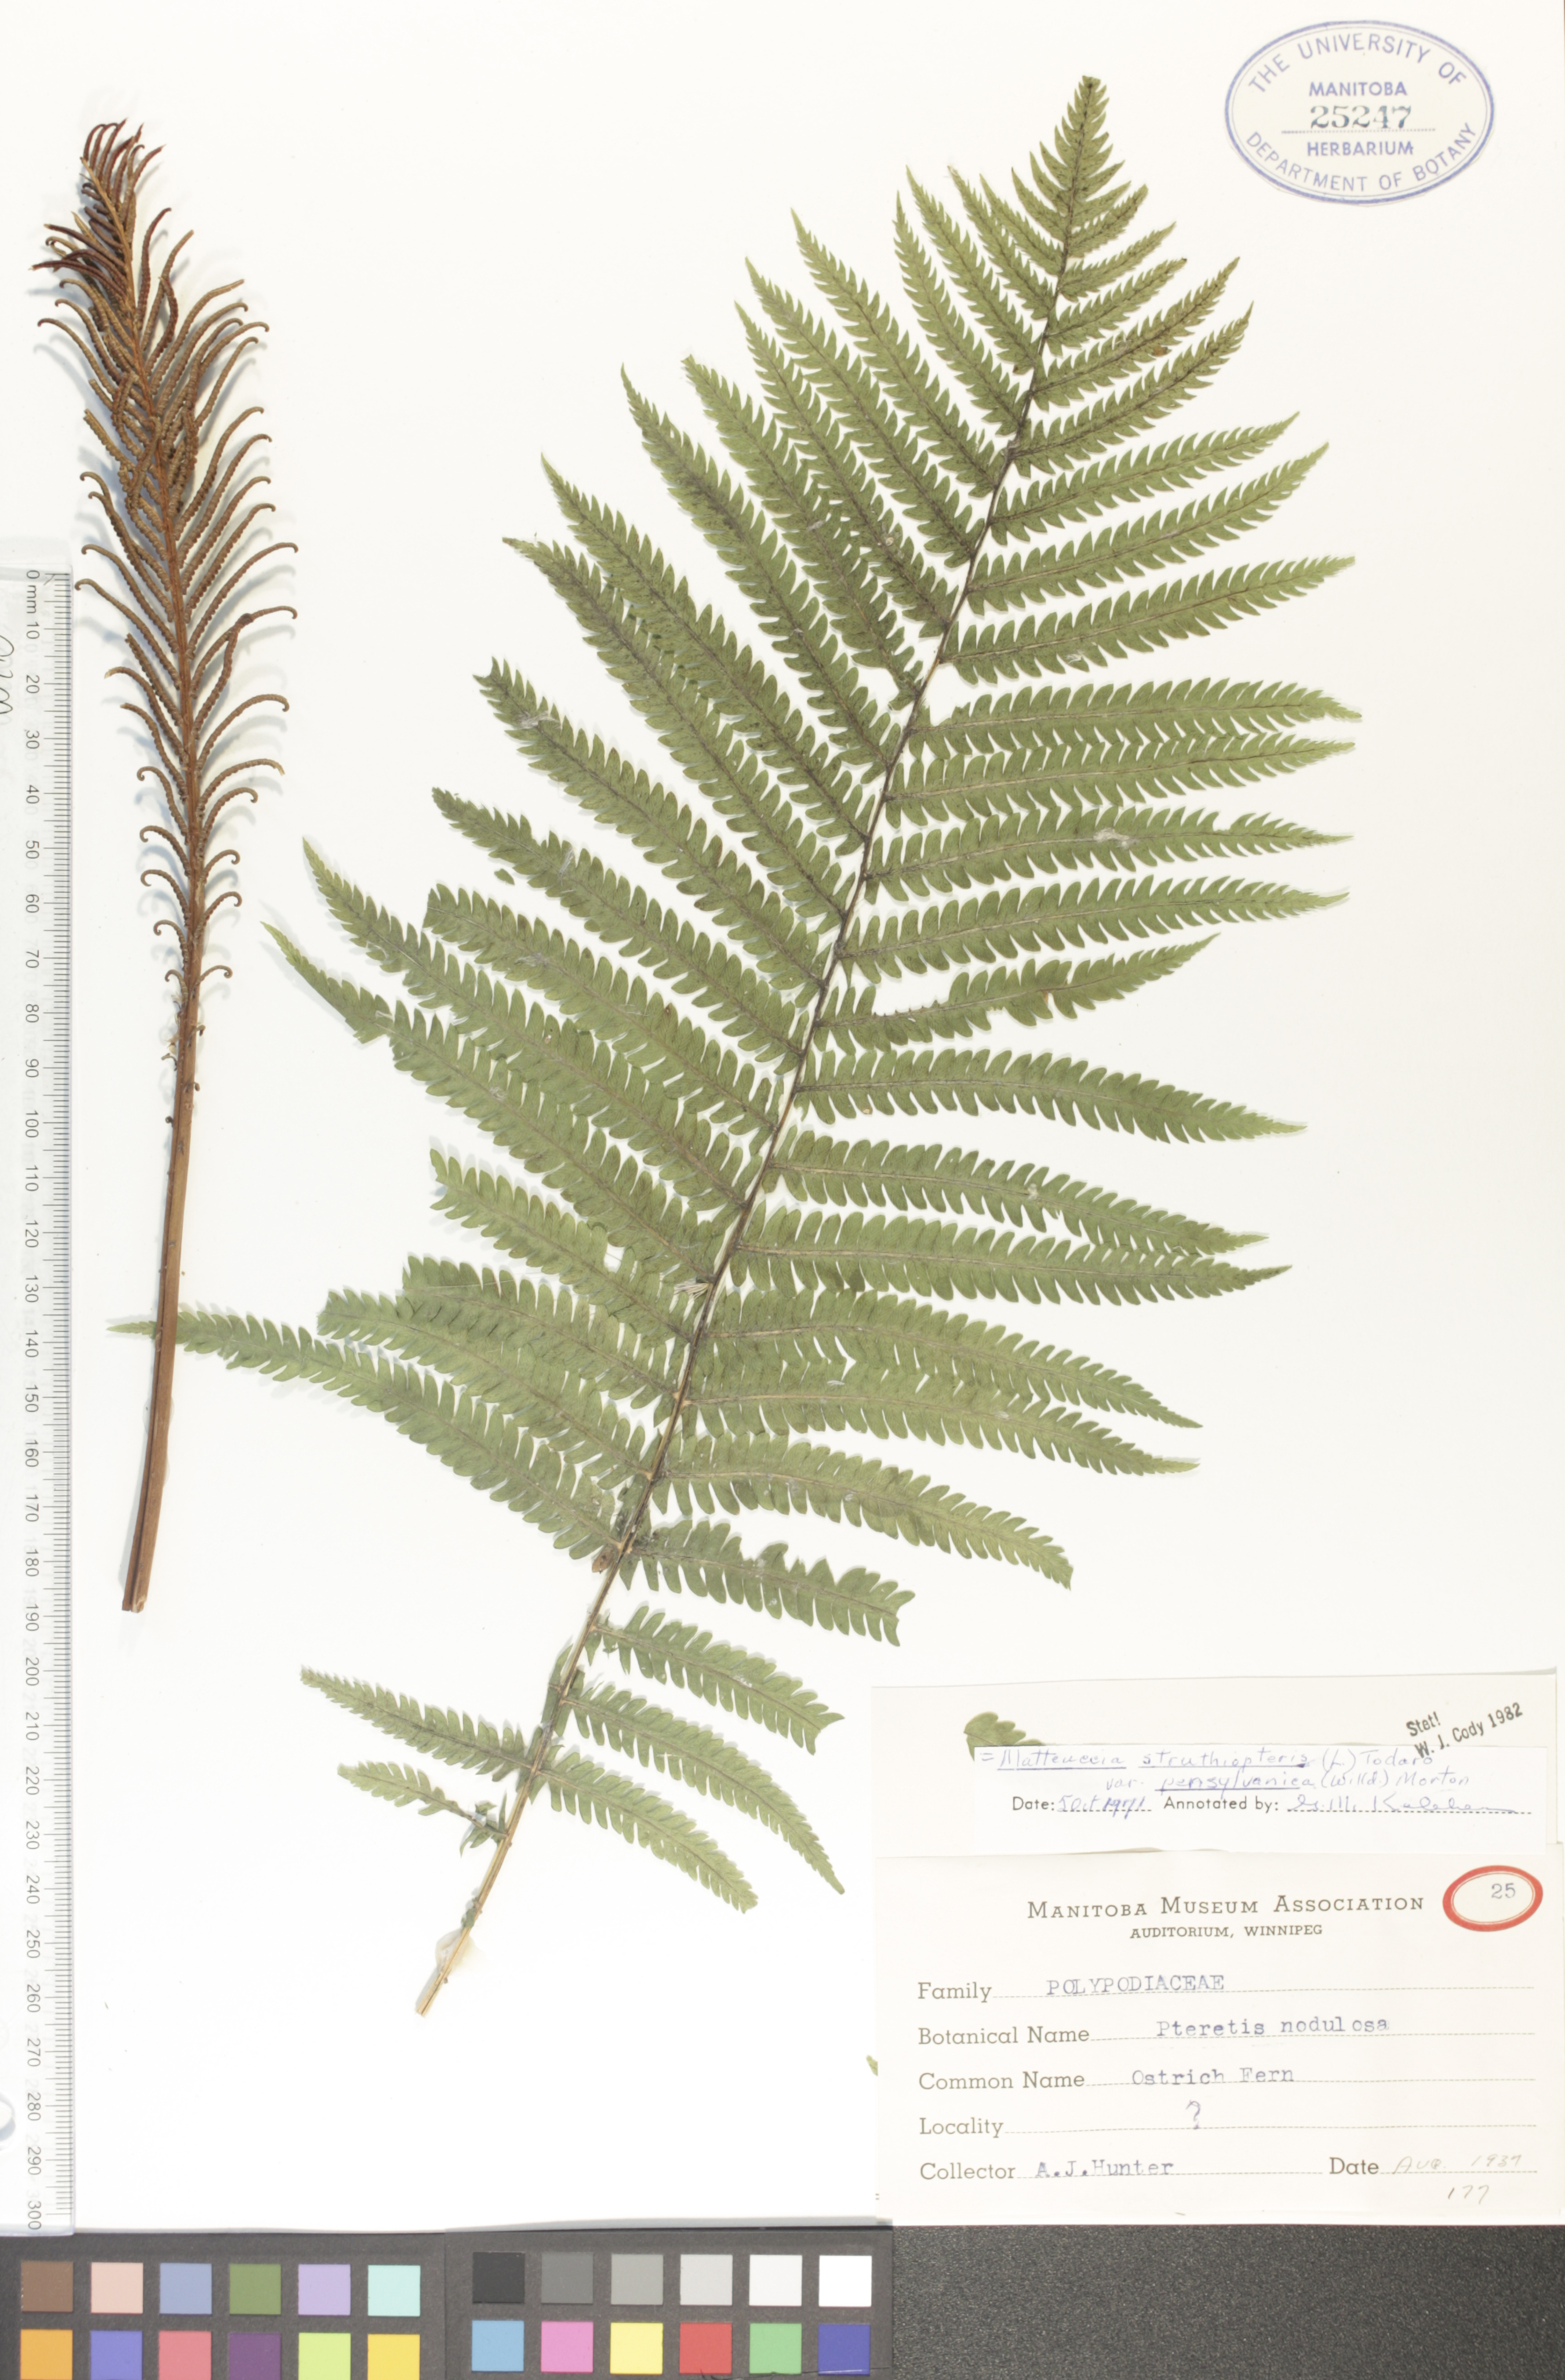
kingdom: Plantae
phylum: Tracheophyta
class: Polypodiopsida
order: Polypodiales
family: Onocleaceae
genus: Matteuccia
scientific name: Matteuccia pensylvanica
